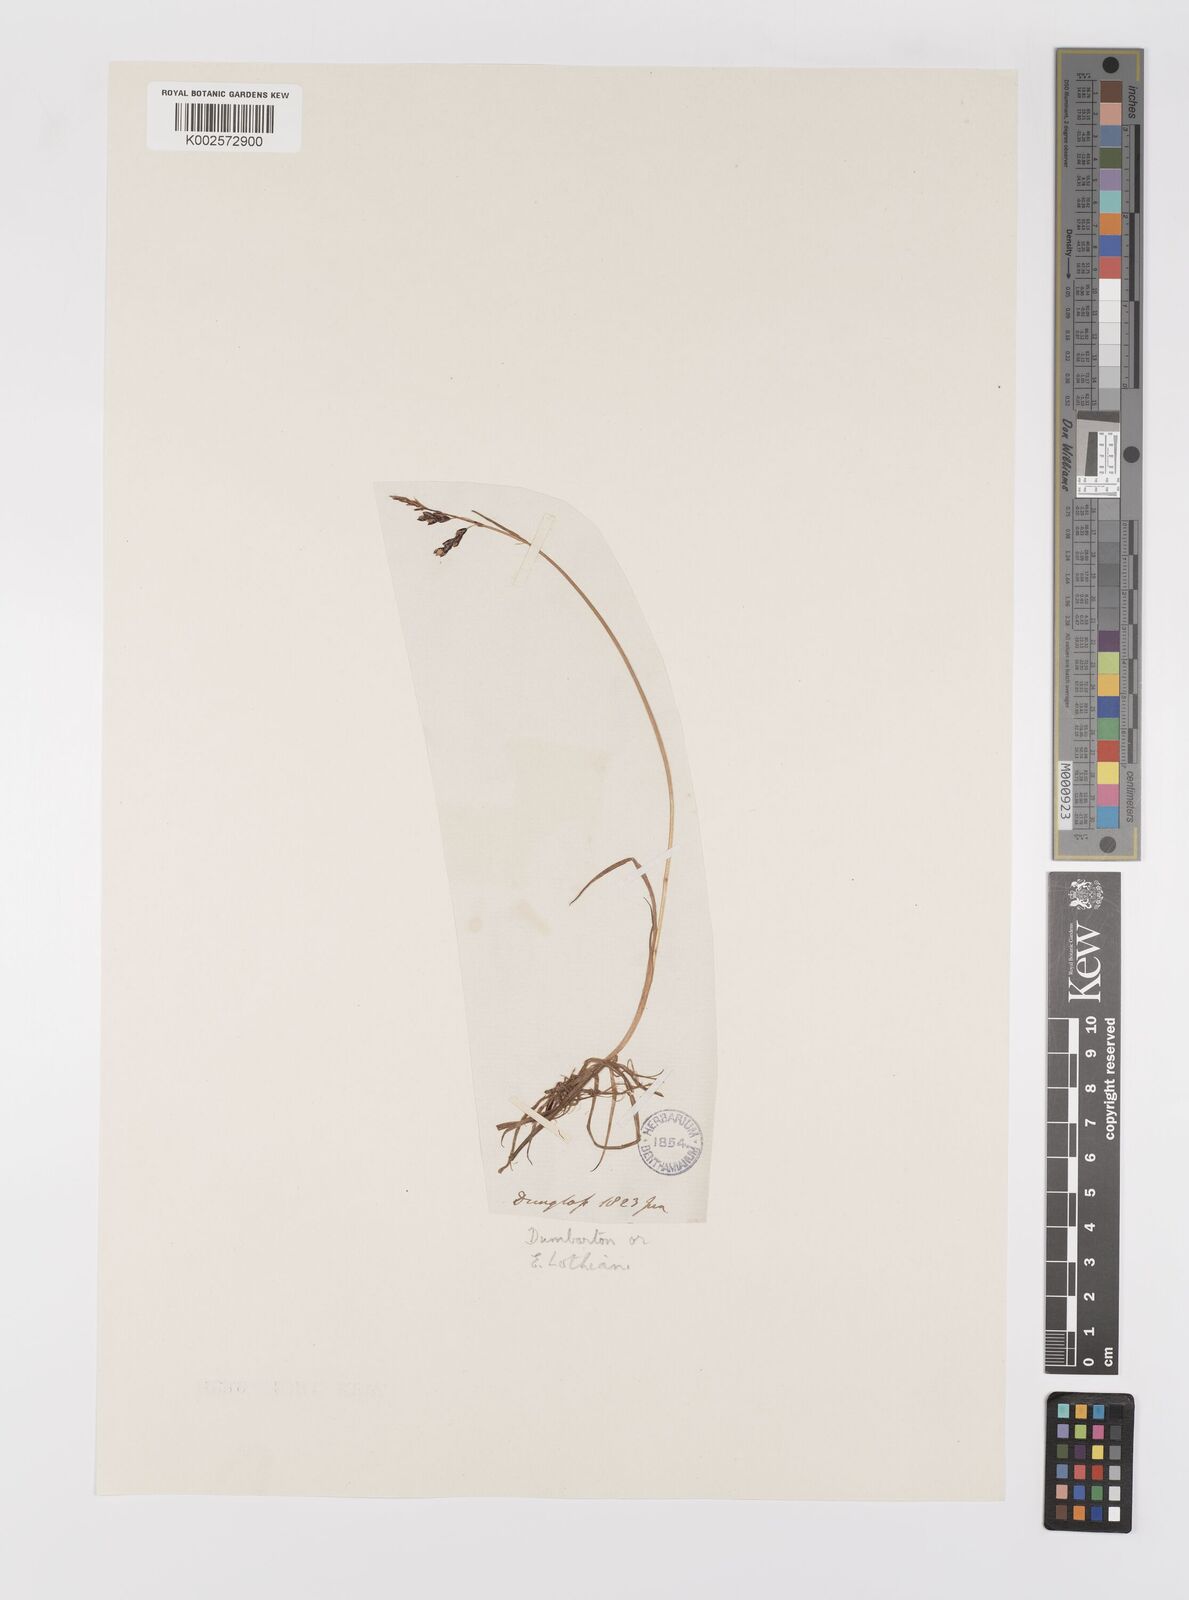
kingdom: Plantae
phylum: Tracheophyta
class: Liliopsida
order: Poales
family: Cyperaceae
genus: Carex
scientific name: Carex rariflora
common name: Loose-flowered alpine sedge
